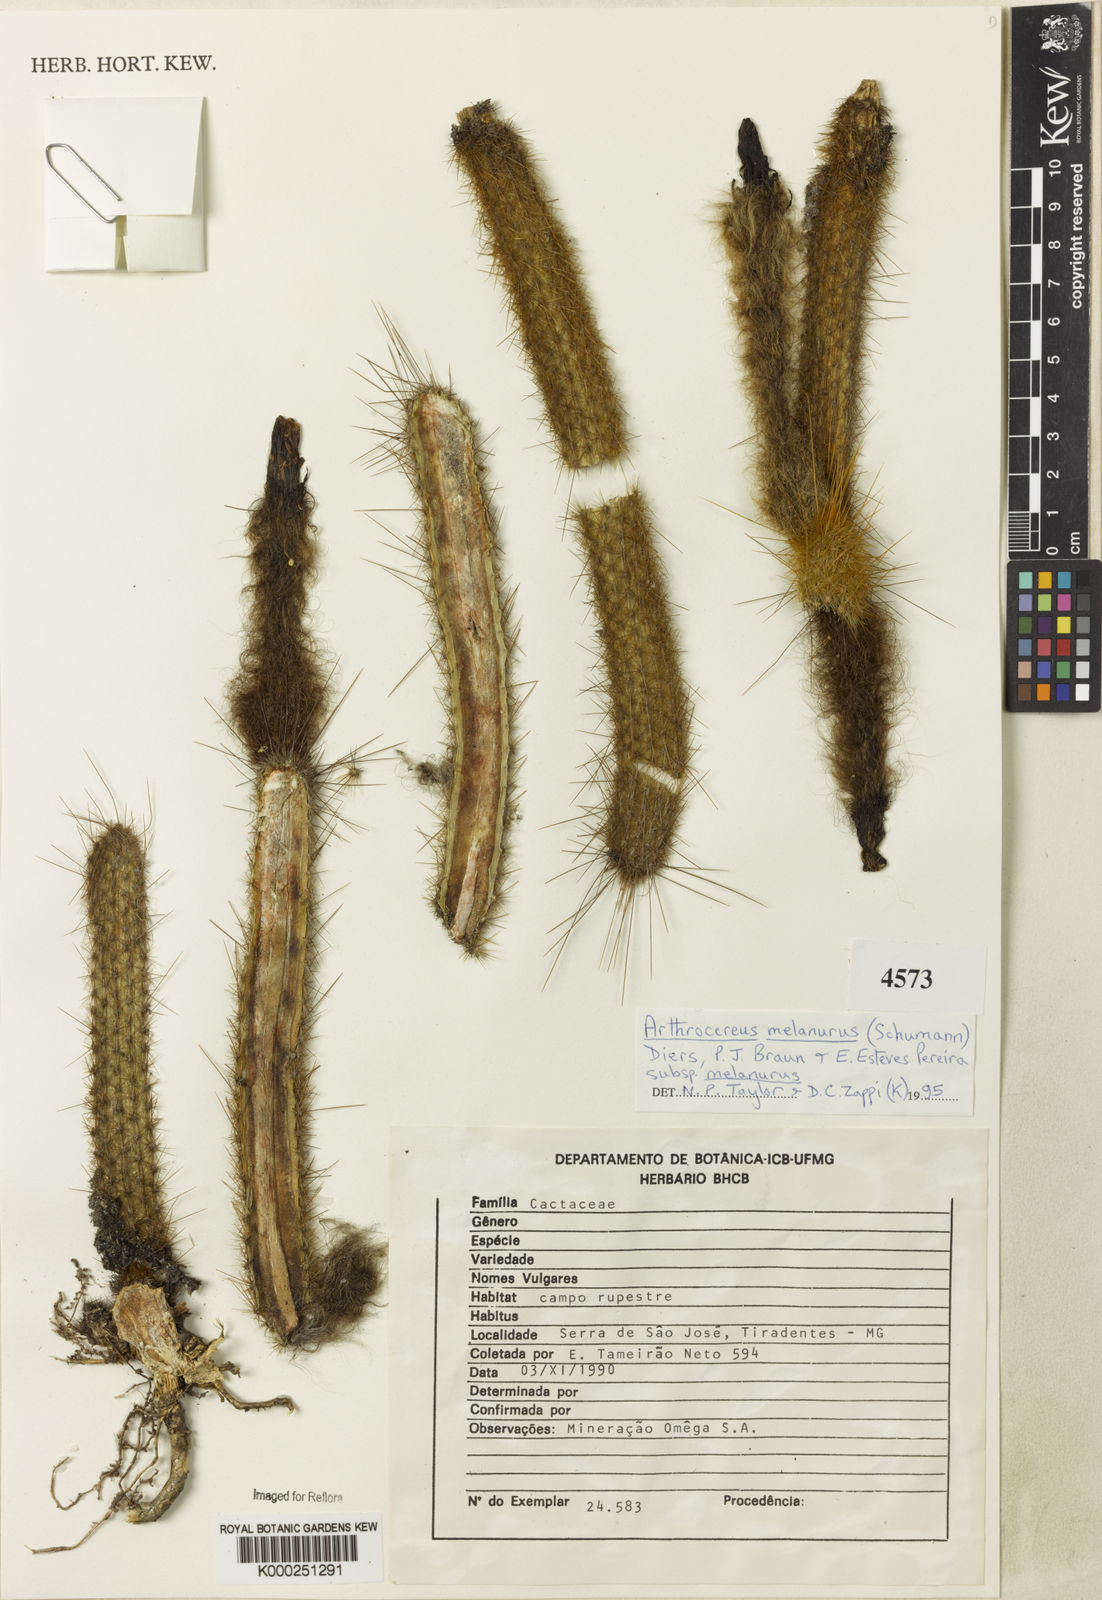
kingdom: Plantae
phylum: Tracheophyta
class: Magnoliopsida
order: Caryophyllales
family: Cactaceae
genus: Arthrocereus
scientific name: Arthrocereus
